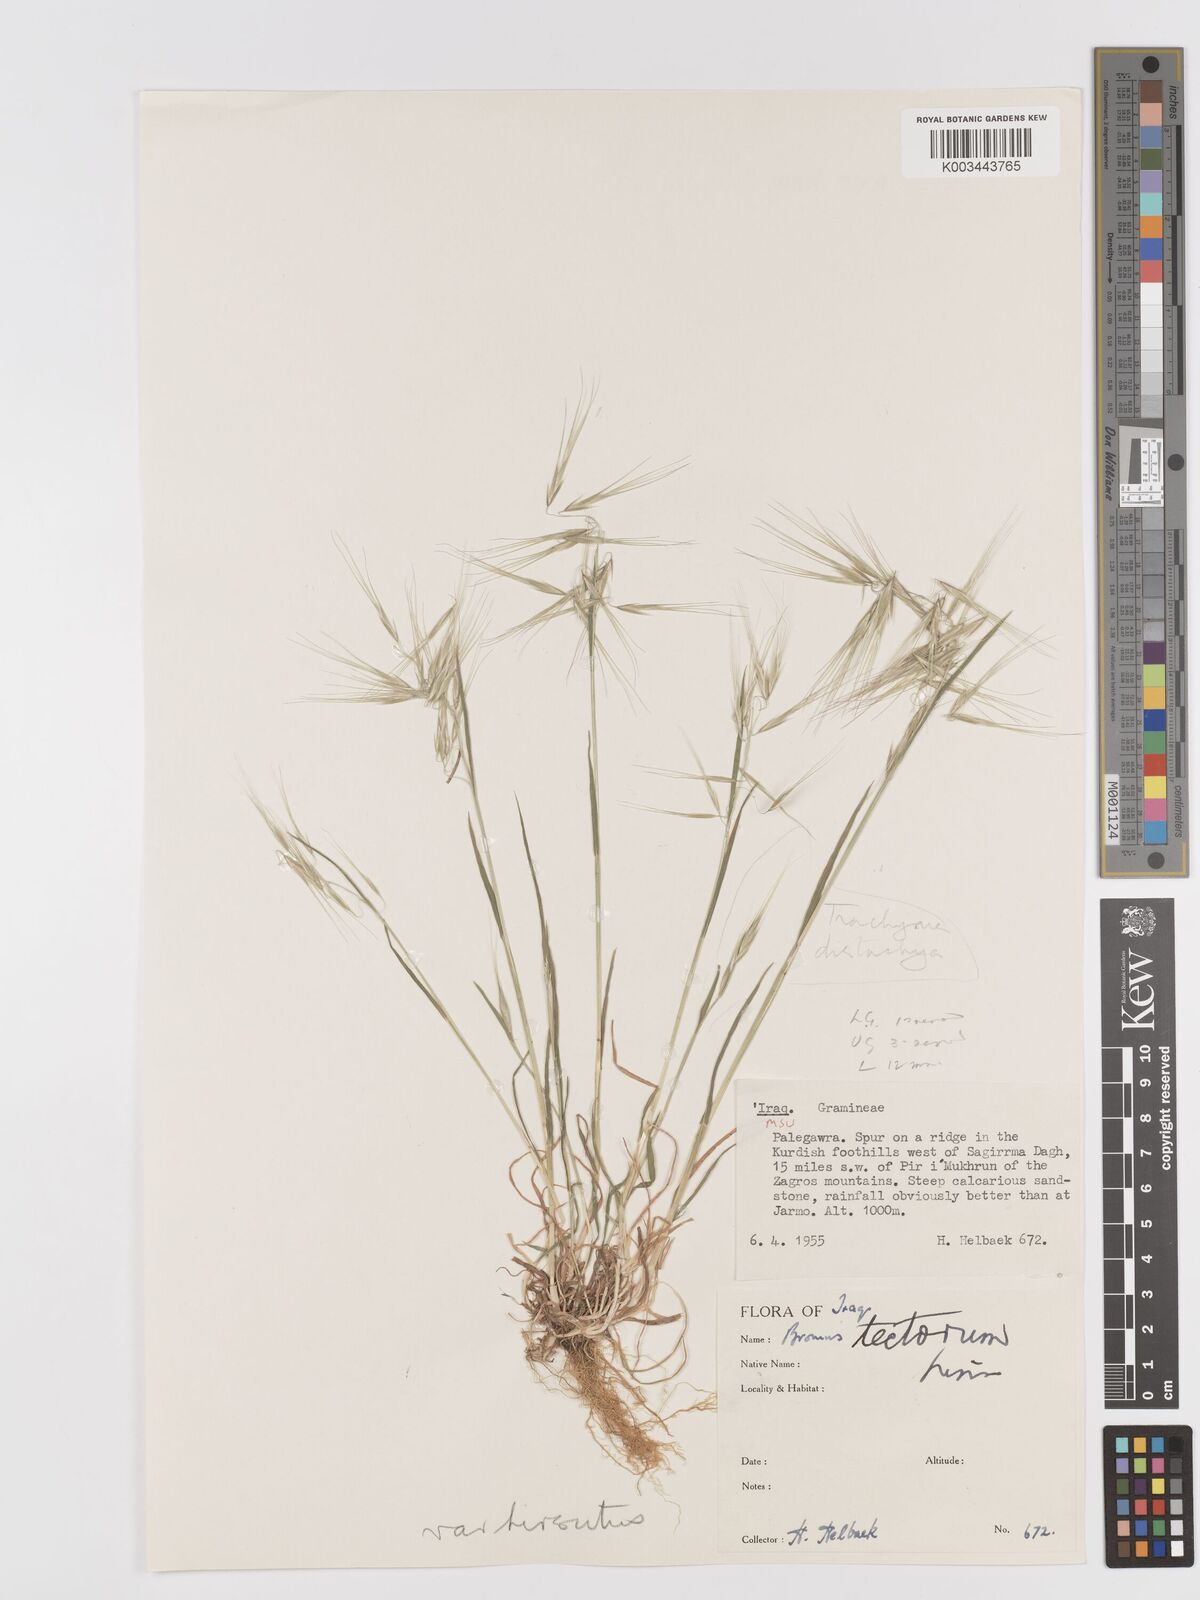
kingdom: Plantae
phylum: Tracheophyta
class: Liliopsida
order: Poales
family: Poaceae
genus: Bromus
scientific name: Bromus tectorum
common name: Cheatgrass
